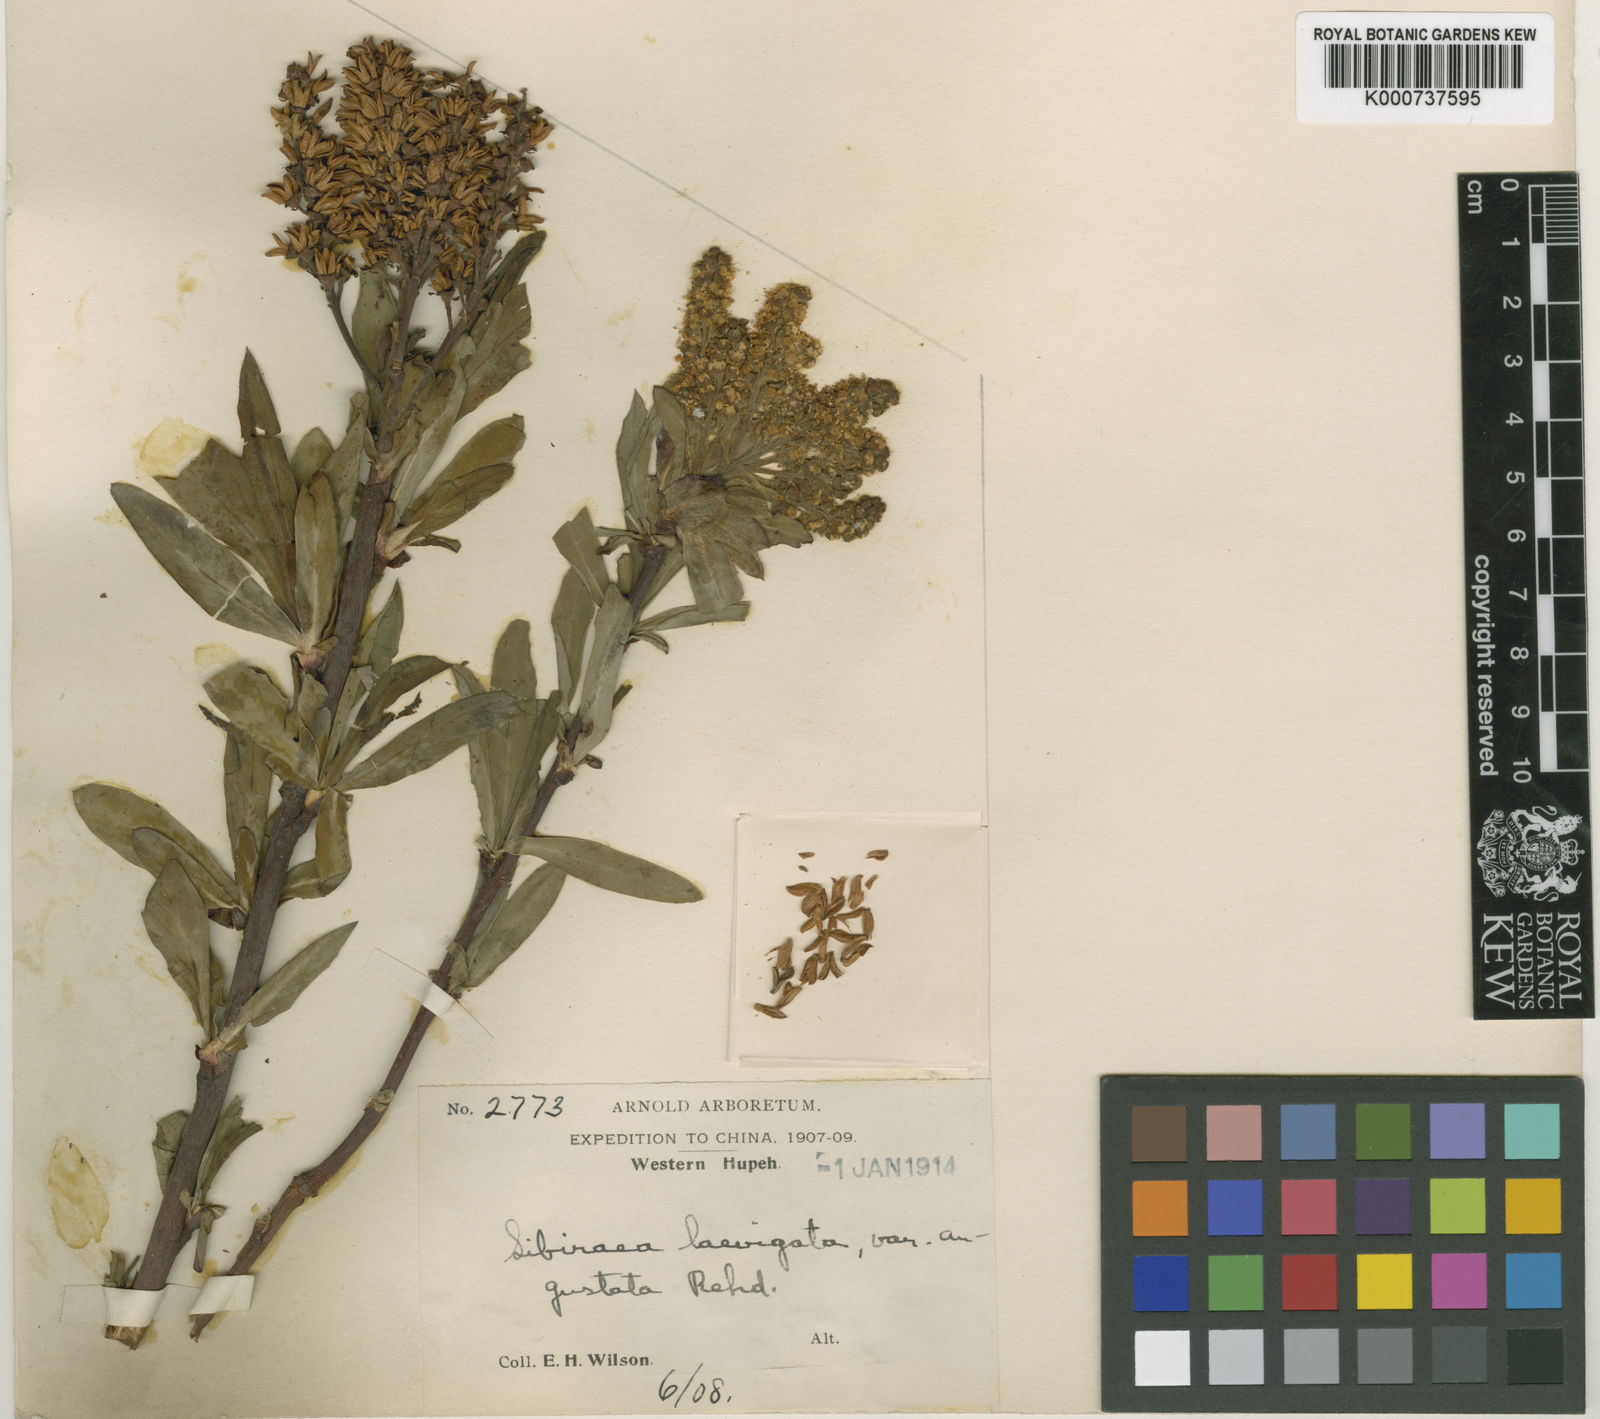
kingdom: Plantae
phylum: Tracheophyta
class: Magnoliopsida
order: Rosales
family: Rosaceae
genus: Sibiraea
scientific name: Sibiraea
